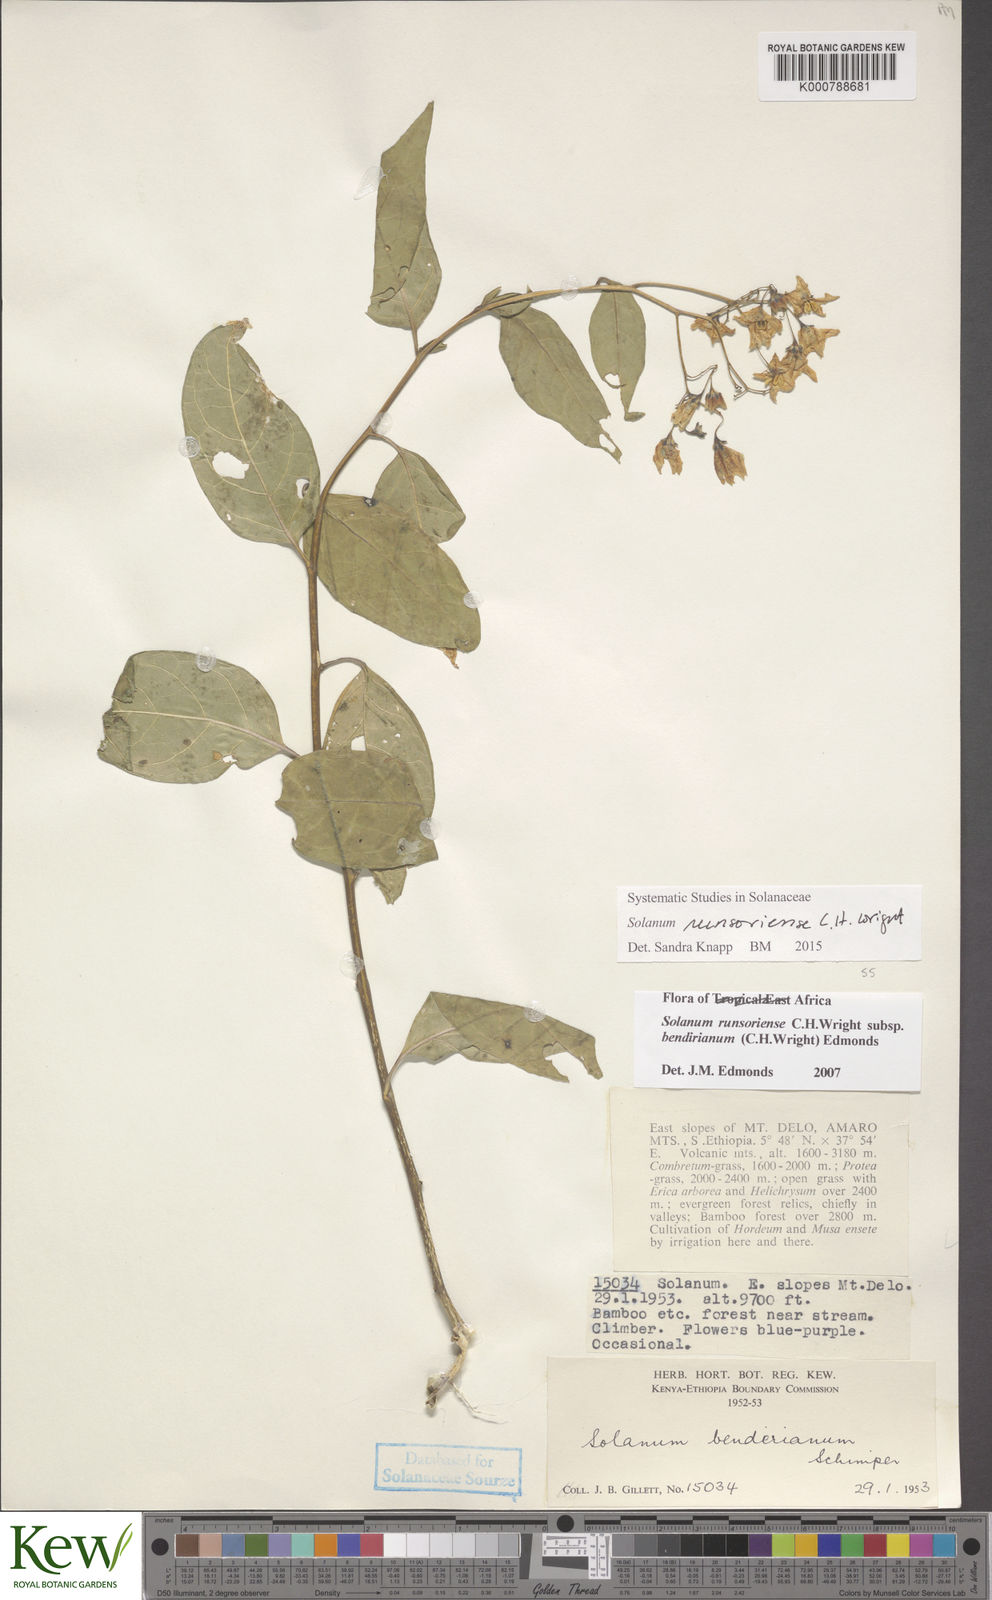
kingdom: Plantae
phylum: Tracheophyta
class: Magnoliopsida
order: Solanales
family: Solanaceae
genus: Solanum
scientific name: Solanum runsoriense
